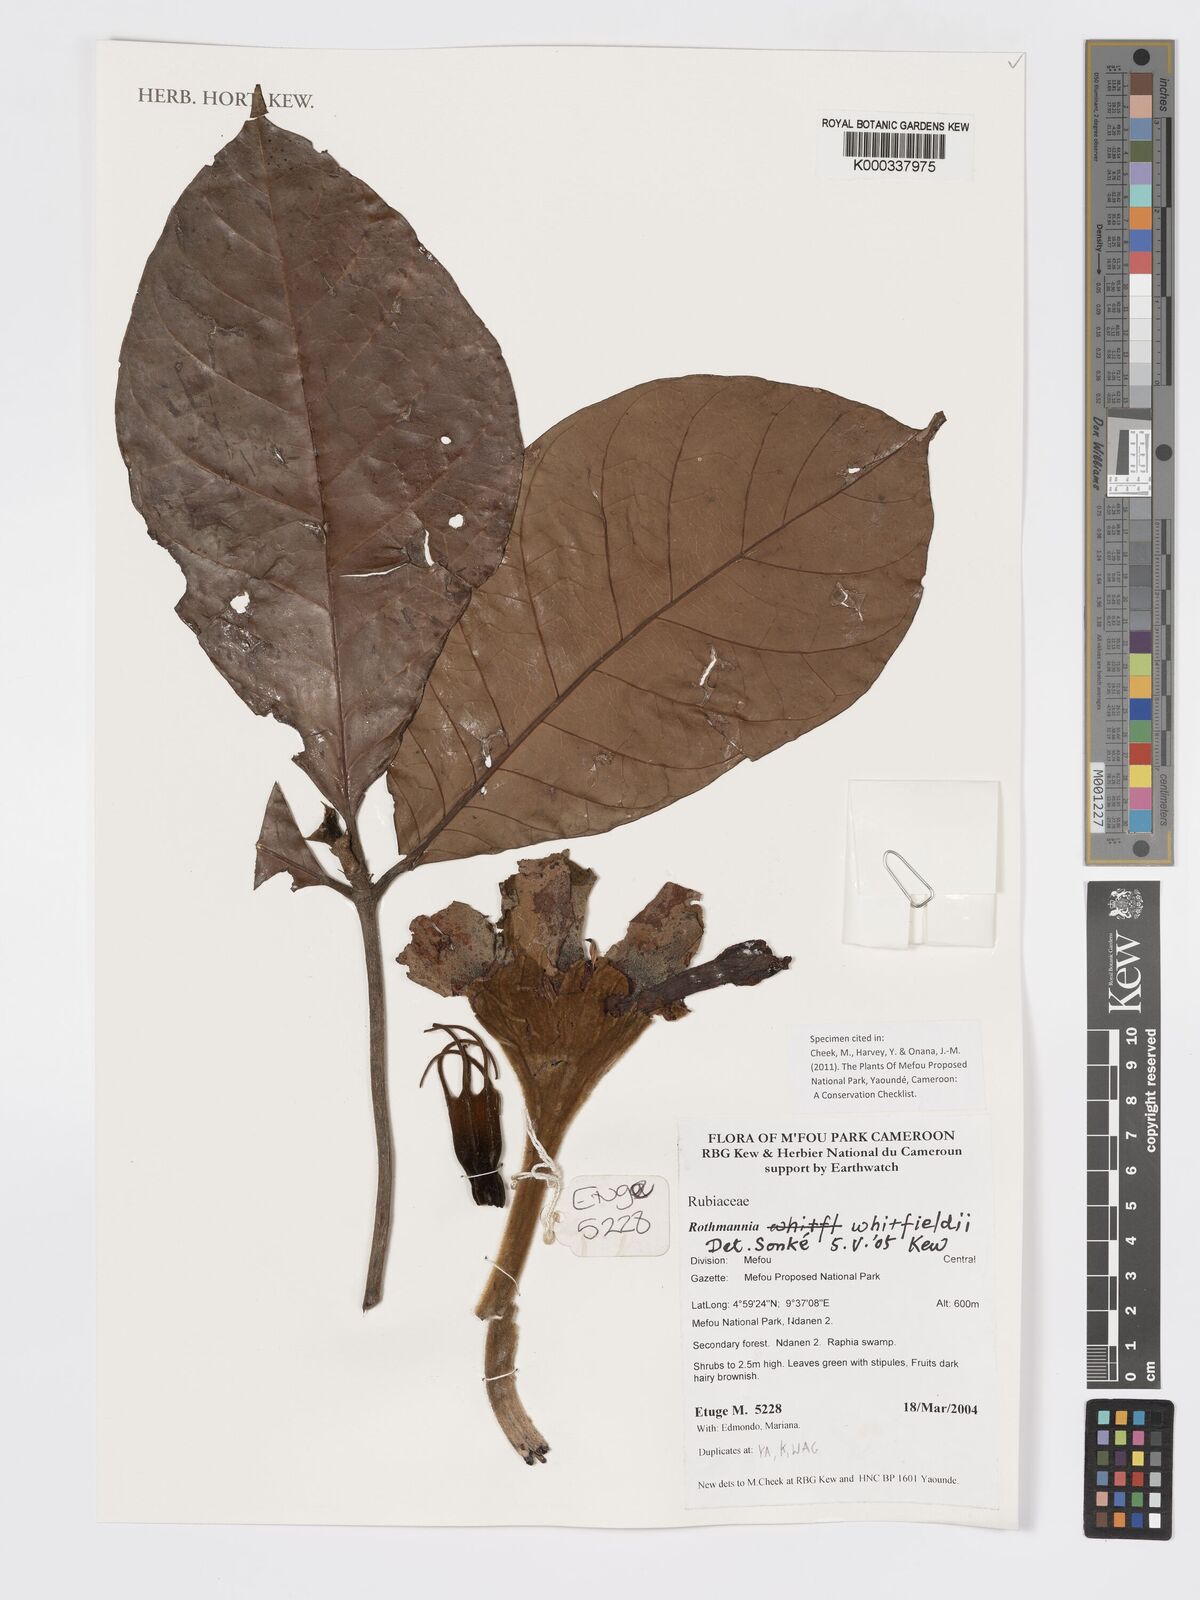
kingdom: Plantae
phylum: Tracheophyta
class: Magnoliopsida
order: Gentianales
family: Rubiaceae
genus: Rothmannia
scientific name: Rothmannia whitfieldii
